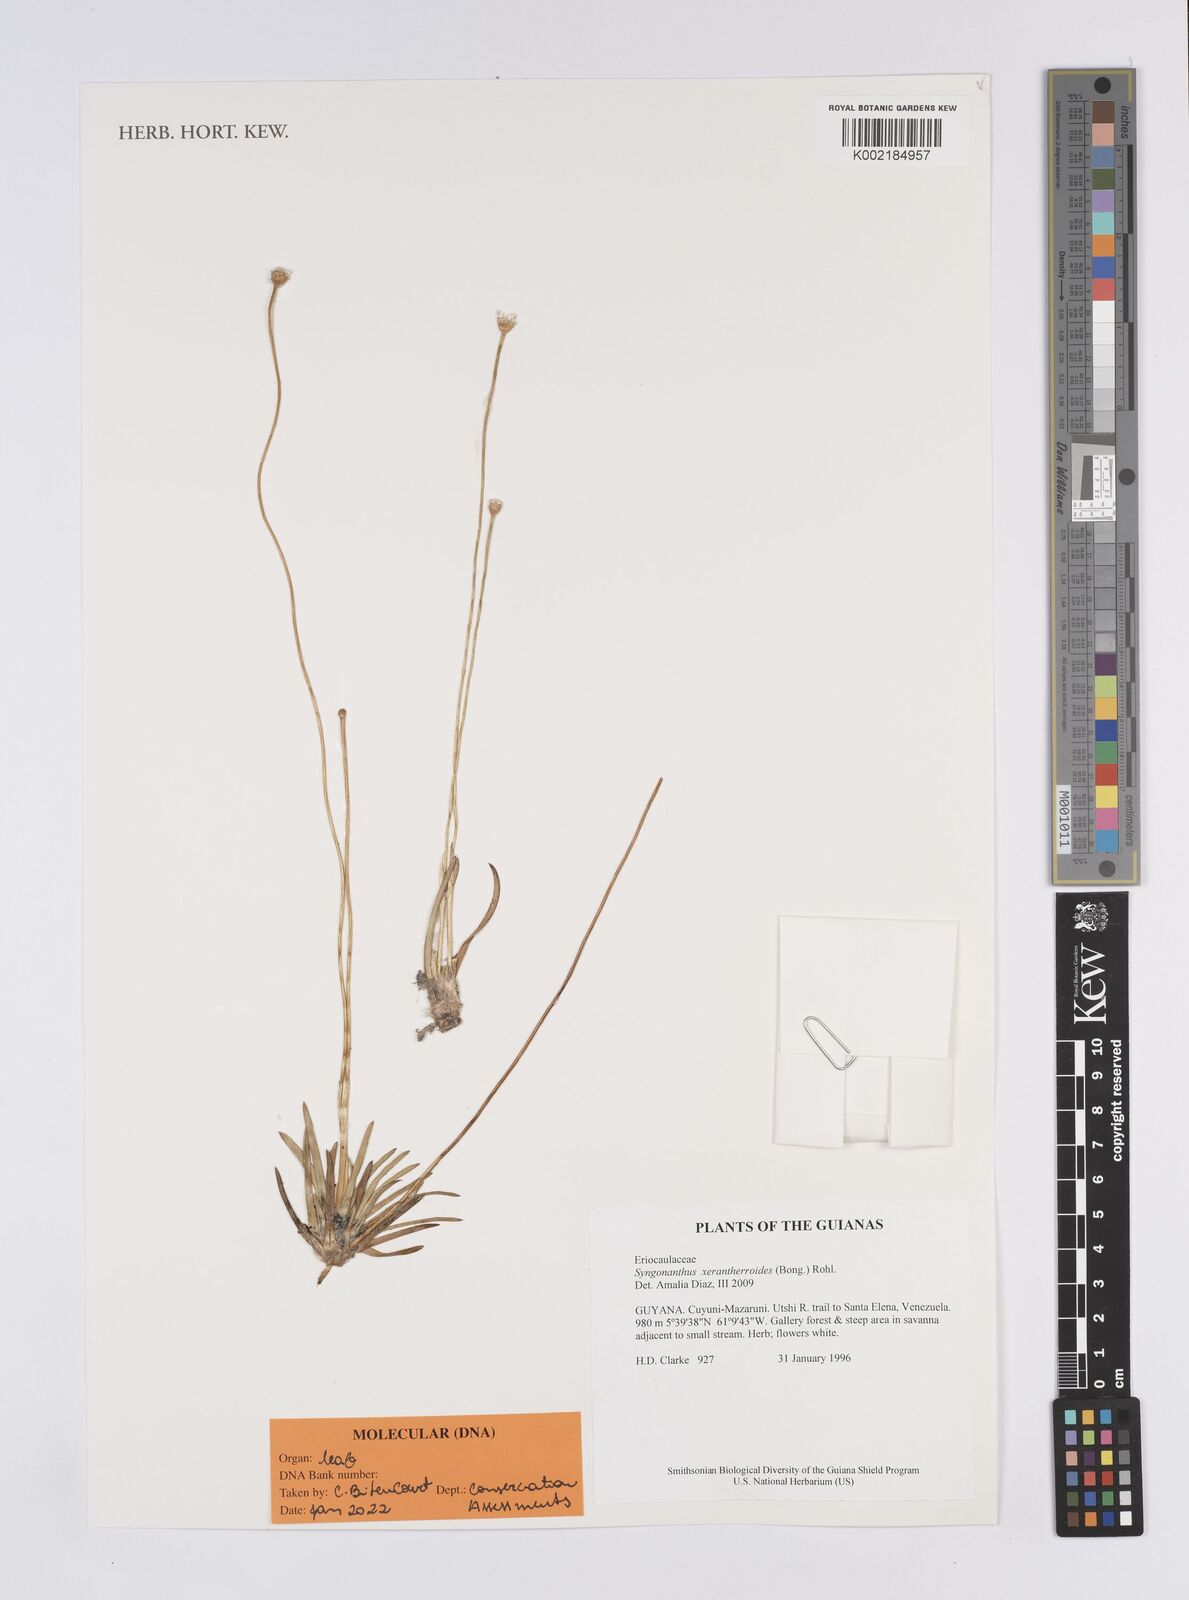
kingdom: Plantae
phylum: Tracheophyta
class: Liliopsida
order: Poales
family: Eriocaulaceae
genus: Comanthera
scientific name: Comanthera xeranthemoides
